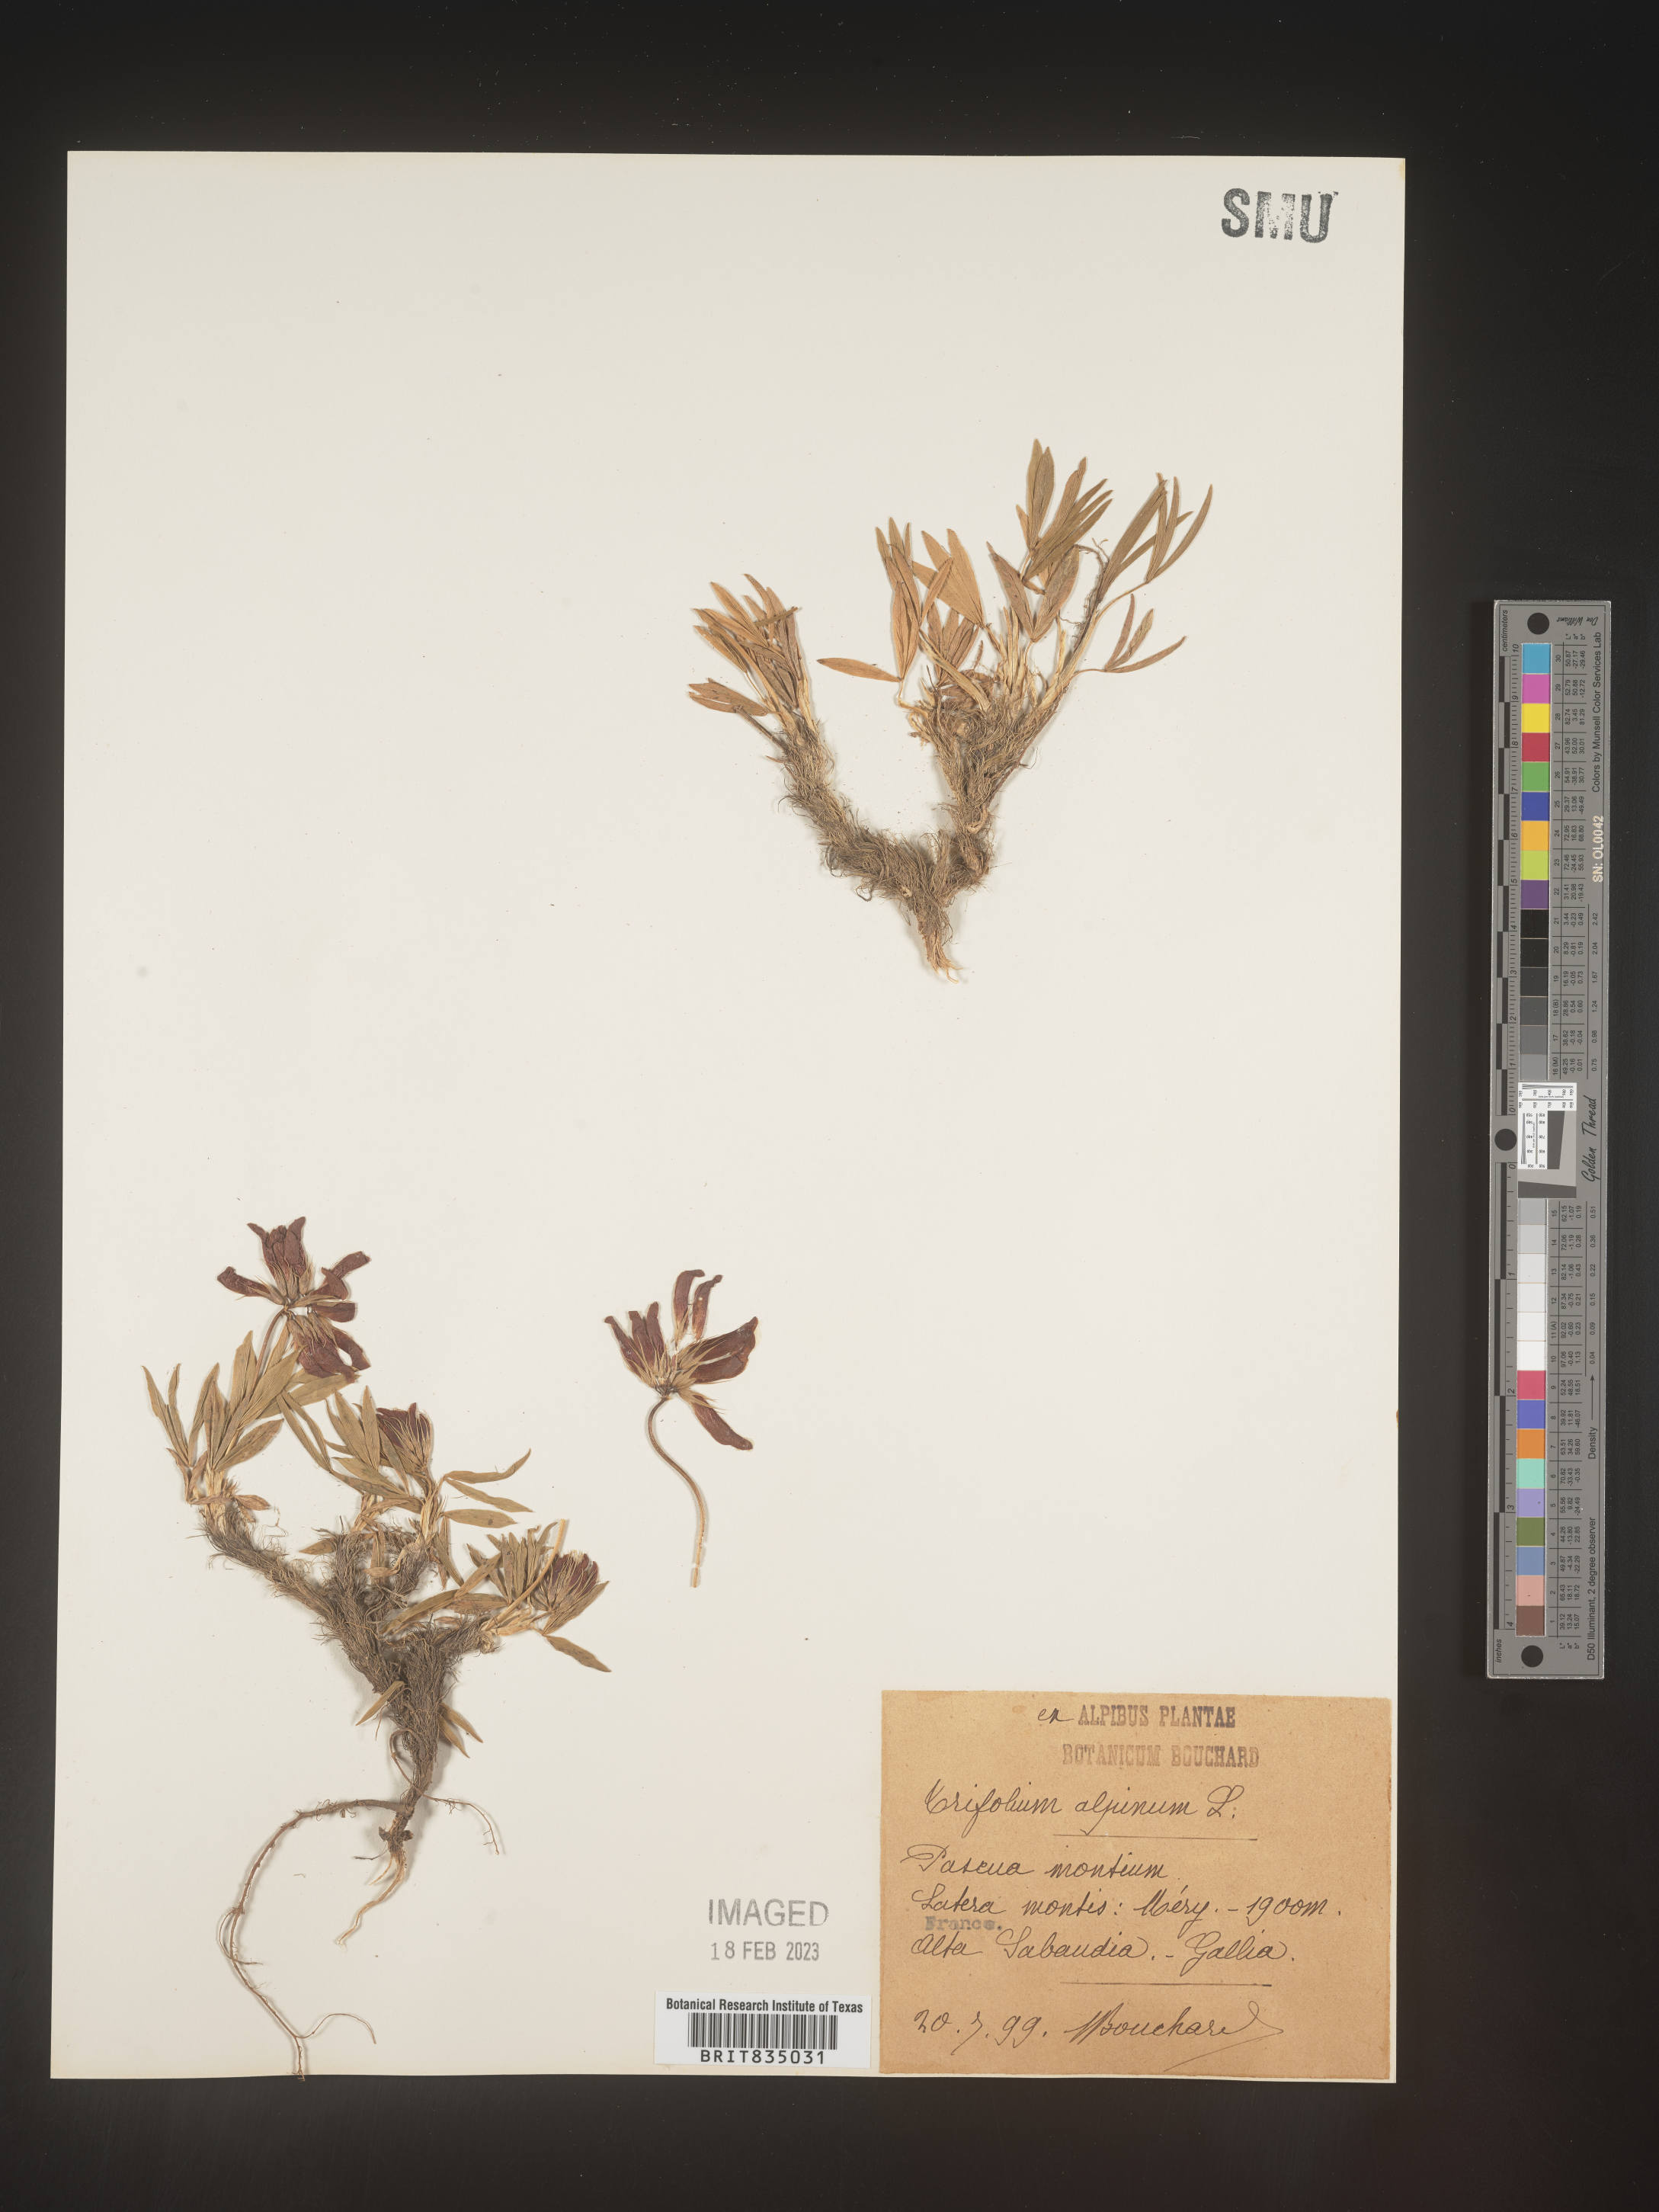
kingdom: Plantae
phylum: Tracheophyta
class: Magnoliopsida
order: Fabales
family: Fabaceae
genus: Trifolium
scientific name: Trifolium
